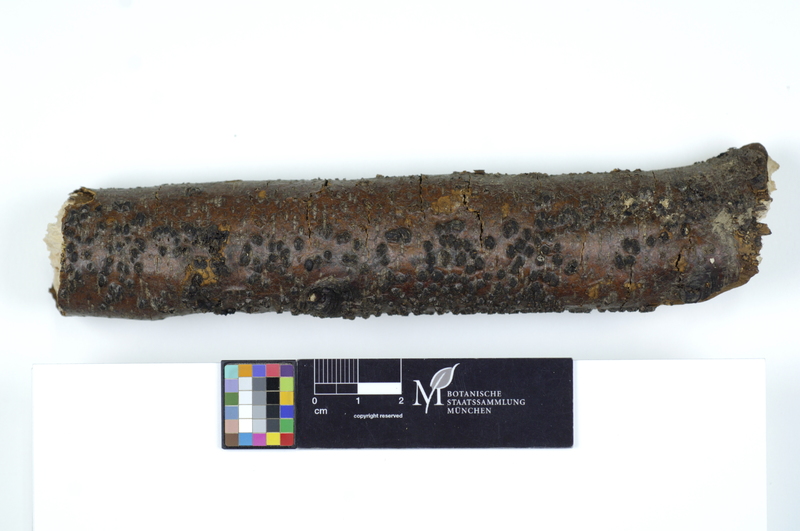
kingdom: Plantae
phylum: Tracheophyta
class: Magnoliopsida
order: Fagales
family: Fagaceae
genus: Fagus
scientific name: Fagus sylvatica
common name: Beech
